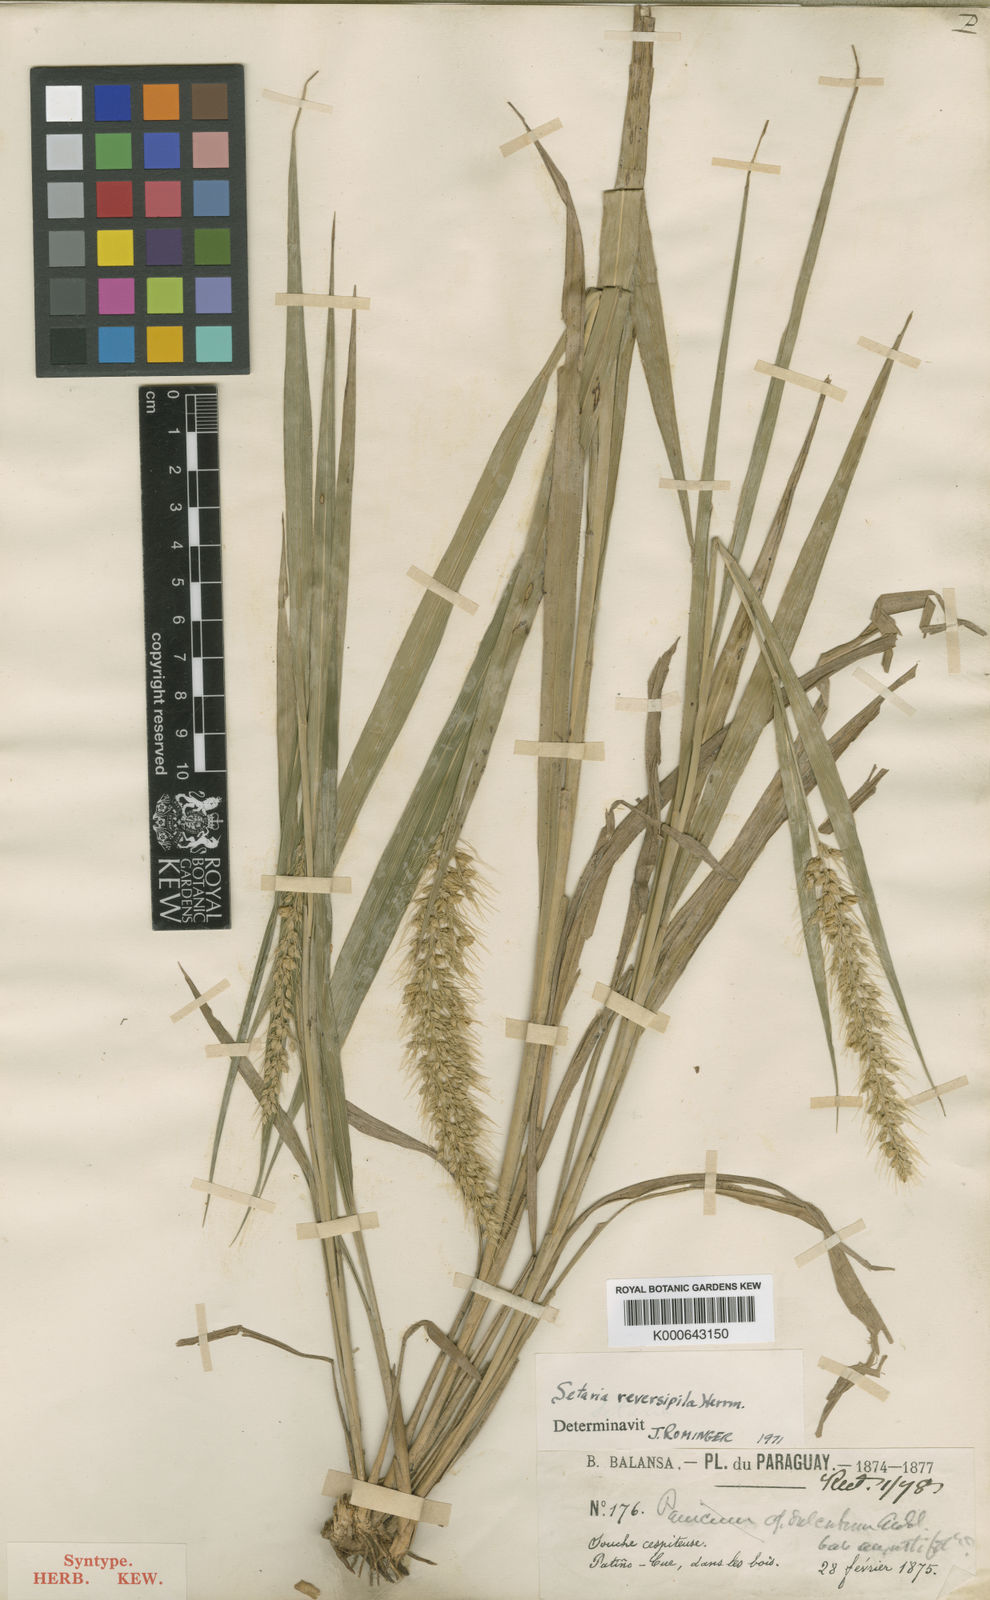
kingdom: Plantae
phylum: Tracheophyta
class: Liliopsida
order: Poales
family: Poaceae
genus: Setaria
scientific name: Setaria vulpiseta
